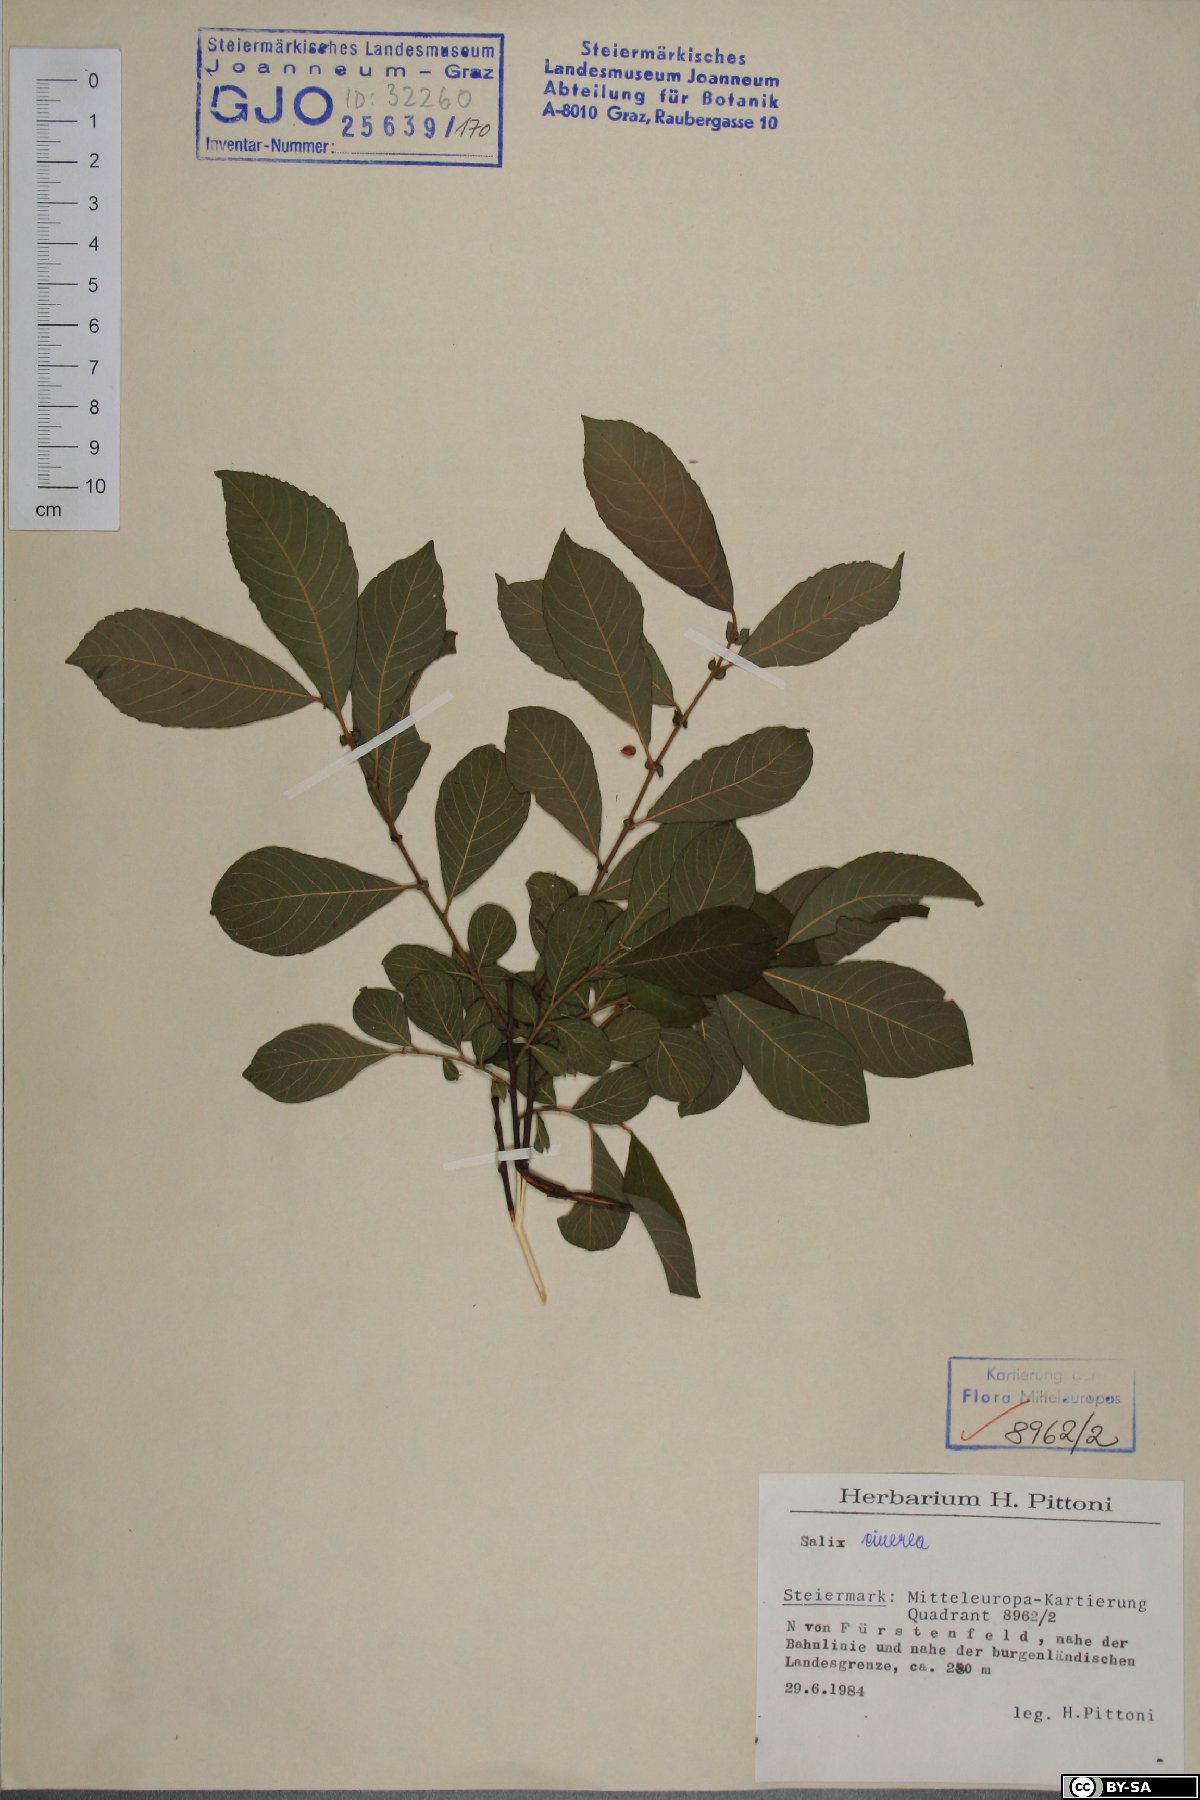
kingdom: Plantae
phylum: Tracheophyta
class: Magnoliopsida
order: Malpighiales
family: Salicaceae
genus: Salix
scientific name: Salix cinerea
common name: Common sallow
